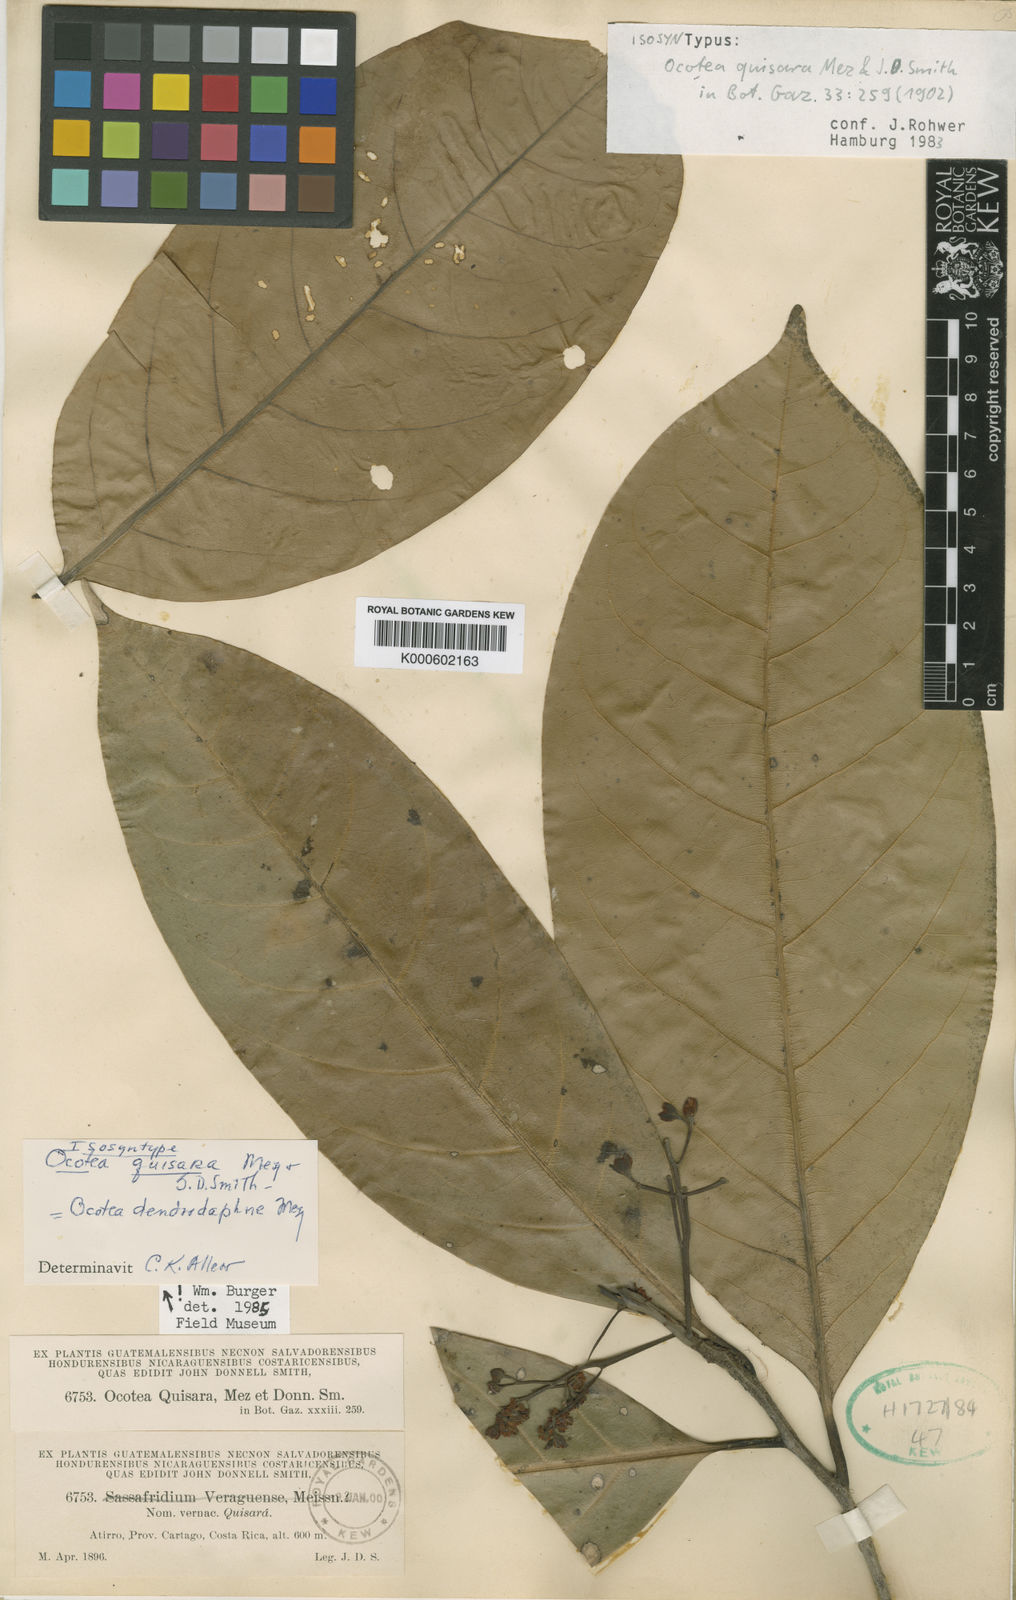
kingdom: Plantae
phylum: Tracheophyta
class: Magnoliopsida
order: Laurales
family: Lauraceae
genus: Mespilodaphne
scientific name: Mespilodaphne macrophylla
